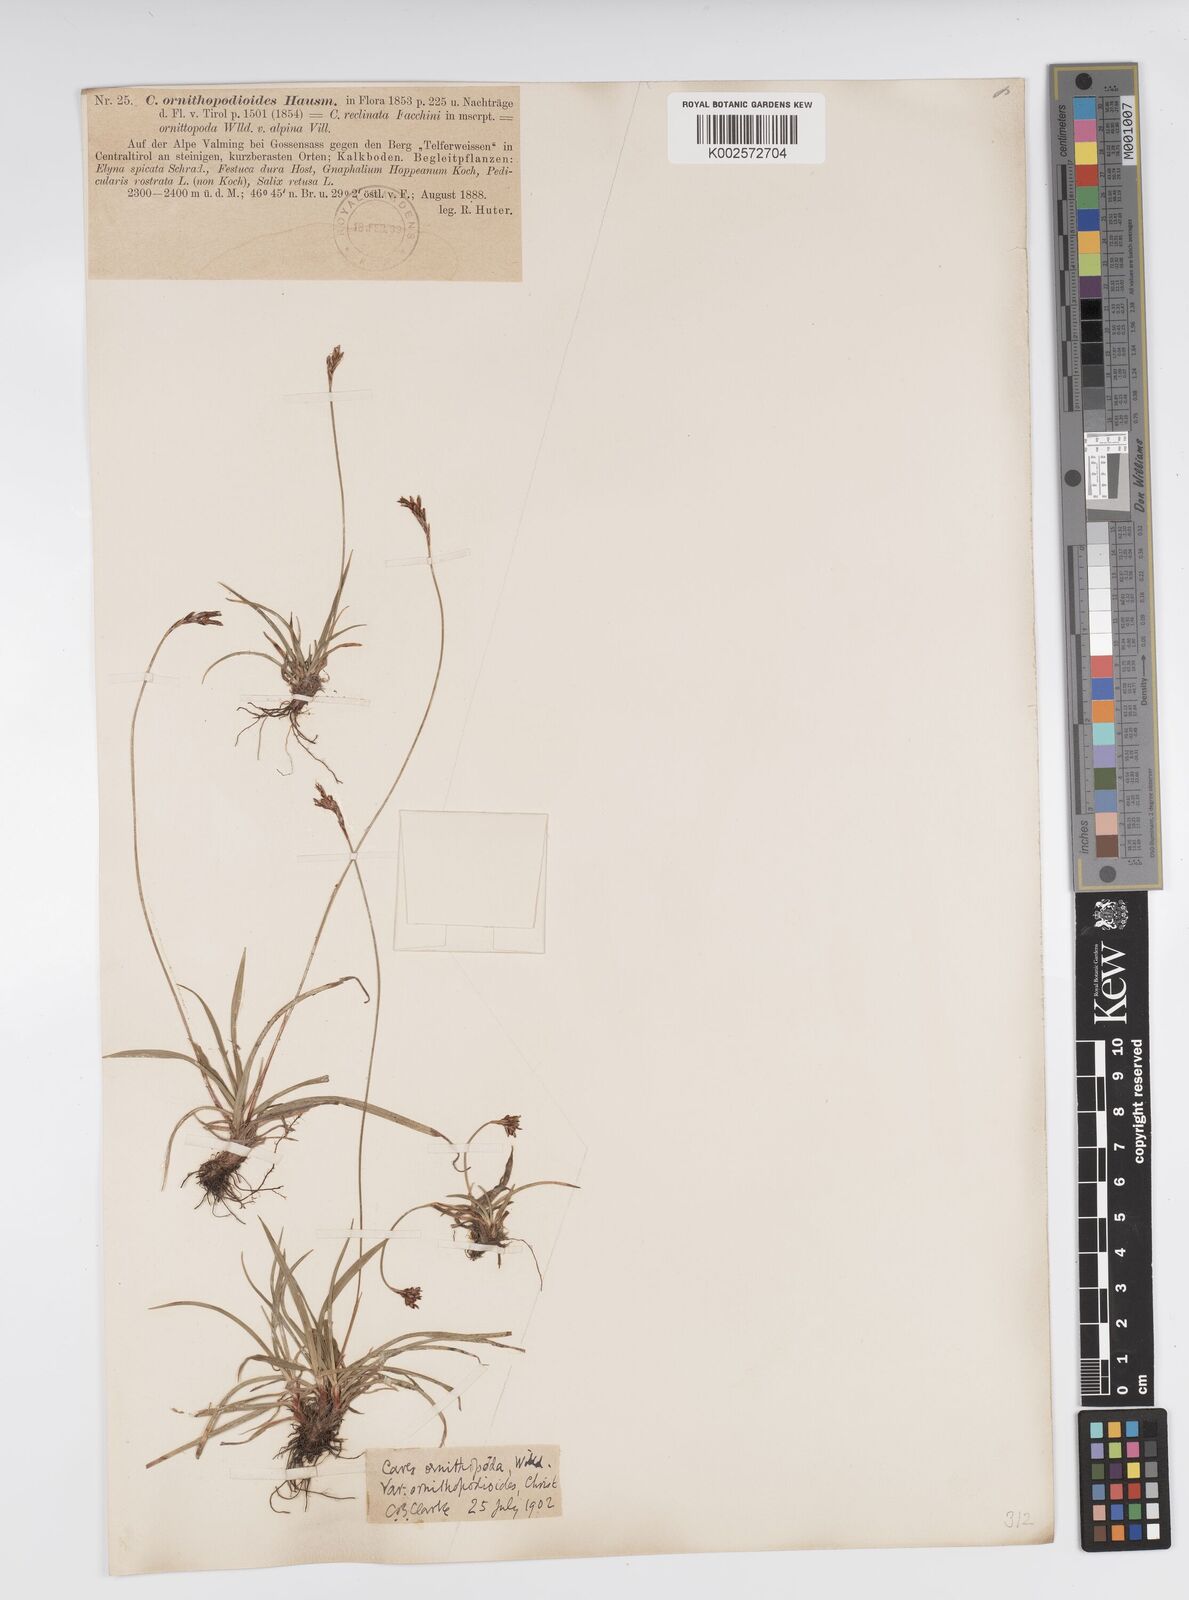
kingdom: Plantae
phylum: Tracheophyta
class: Liliopsida
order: Poales
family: Cyperaceae
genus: Carex
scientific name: Carex ornithopoda
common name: Bird's-foot sedge
